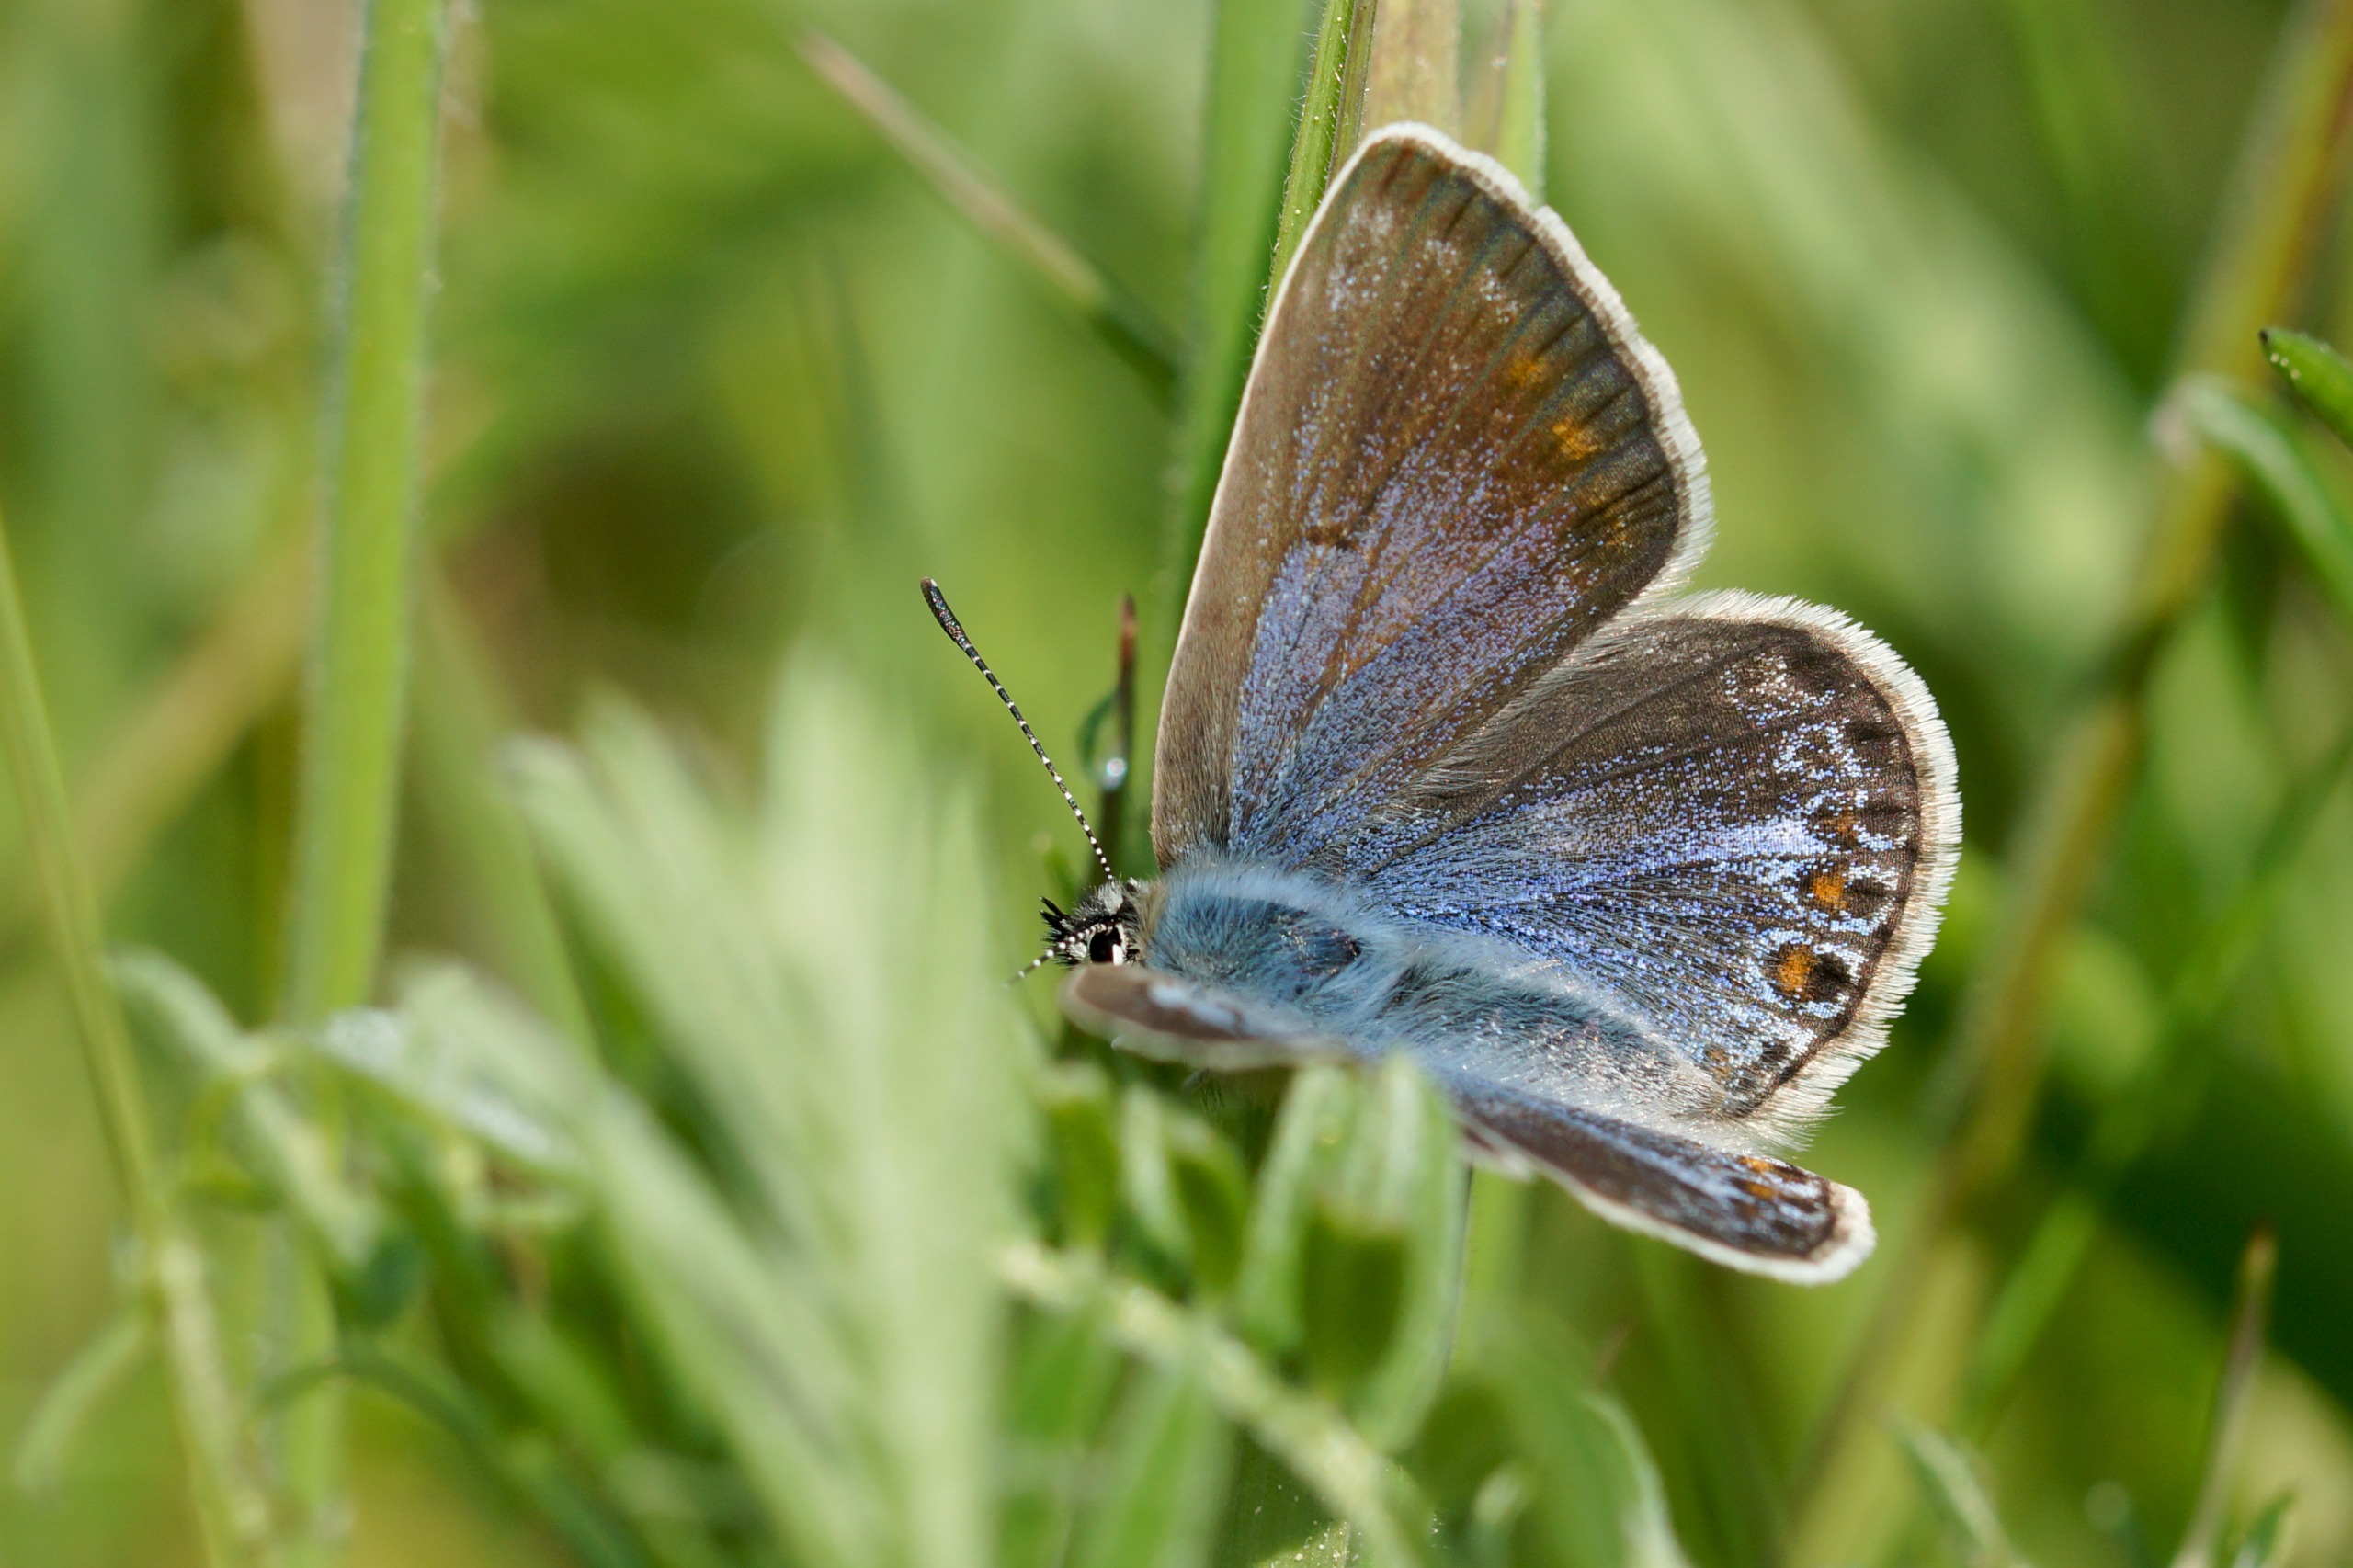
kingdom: Animalia
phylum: Arthropoda
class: Insecta
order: Lepidoptera
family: Lycaenidae
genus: Polyommatus
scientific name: Polyommatus icarus
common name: Almindelig blåfugl
